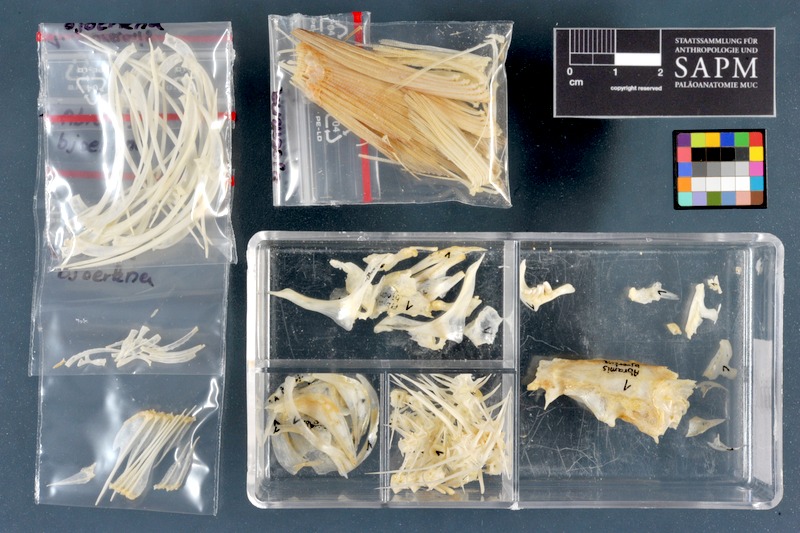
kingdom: Animalia
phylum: Chordata
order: Cypriniformes
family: Cyprinidae
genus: Blicca
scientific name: Blicca bjoerkna
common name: White bream
